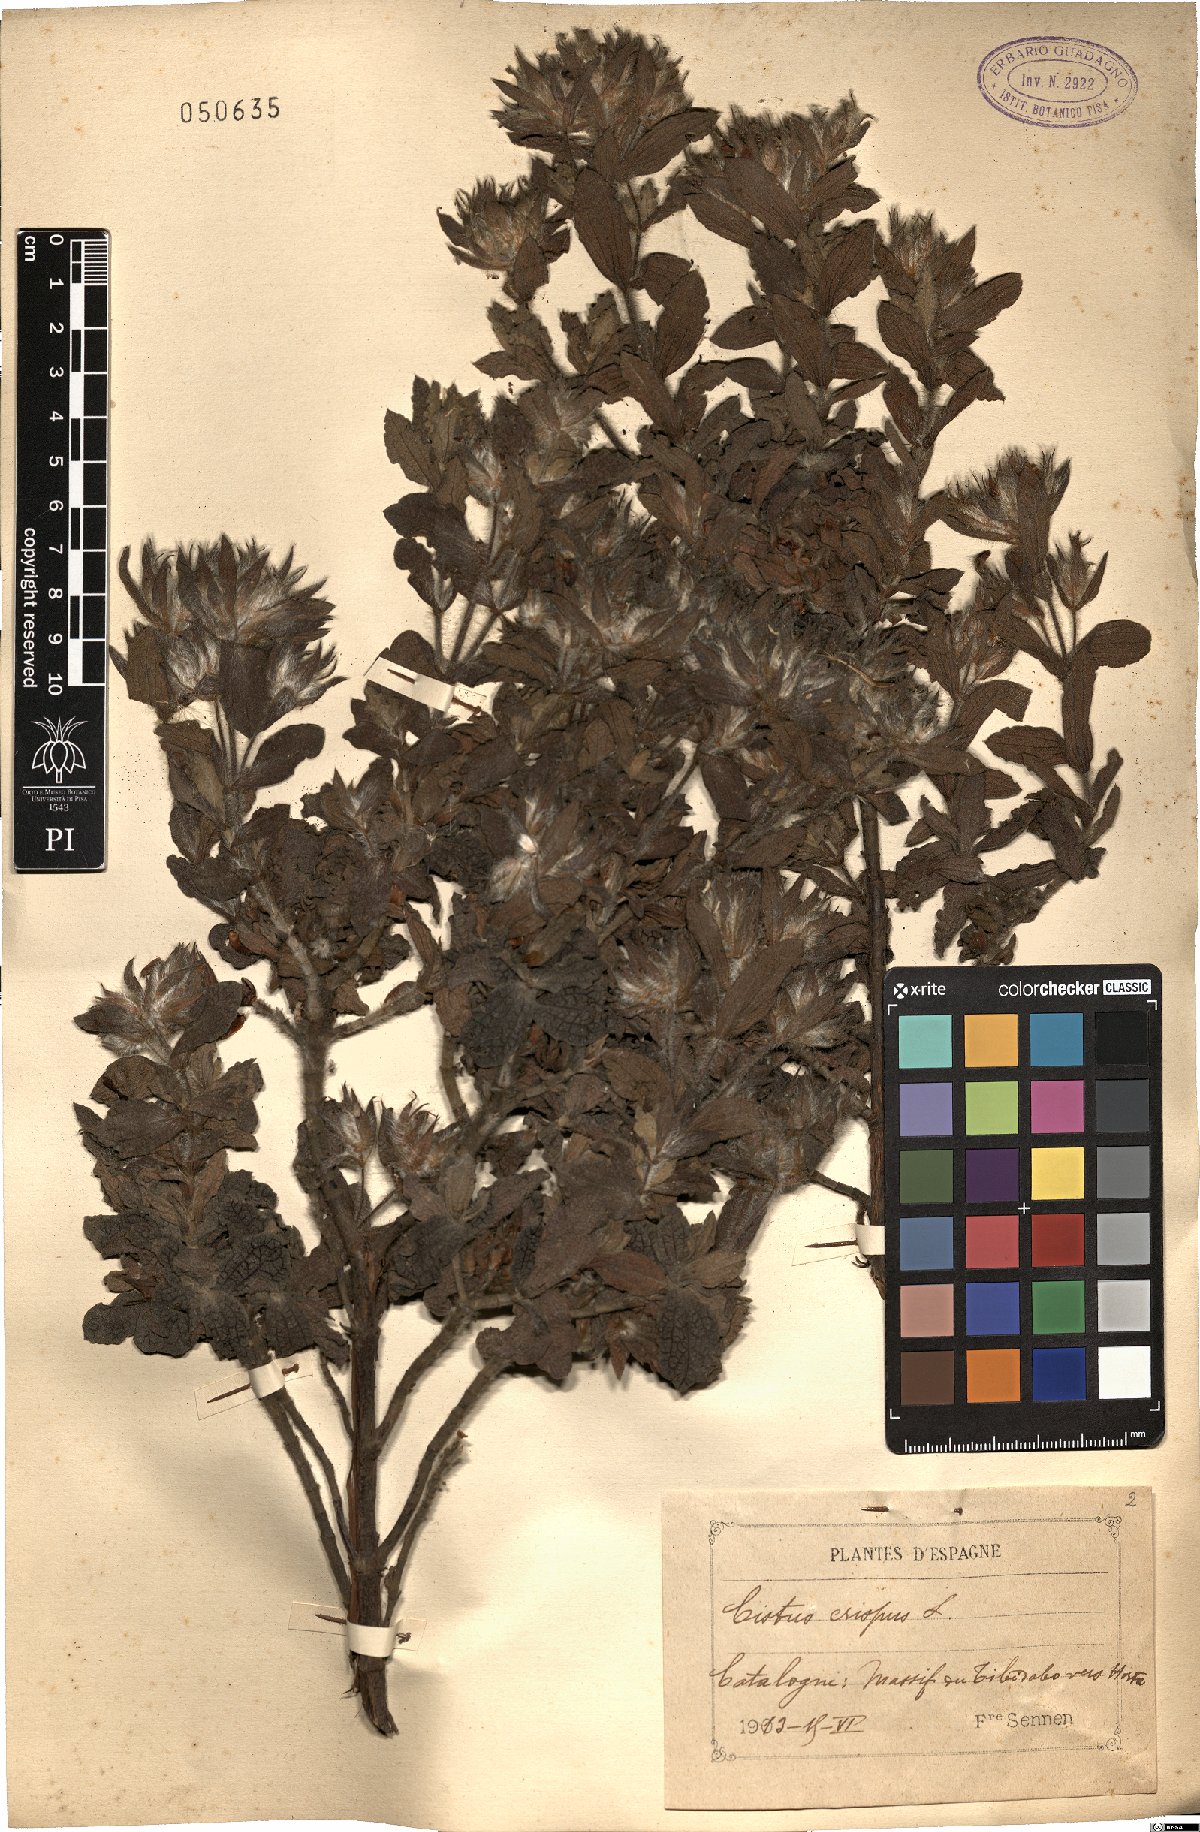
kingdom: Plantae
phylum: Tracheophyta
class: Magnoliopsida
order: Malvales
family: Cistaceae
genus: Cistus
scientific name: Cistus crispus
